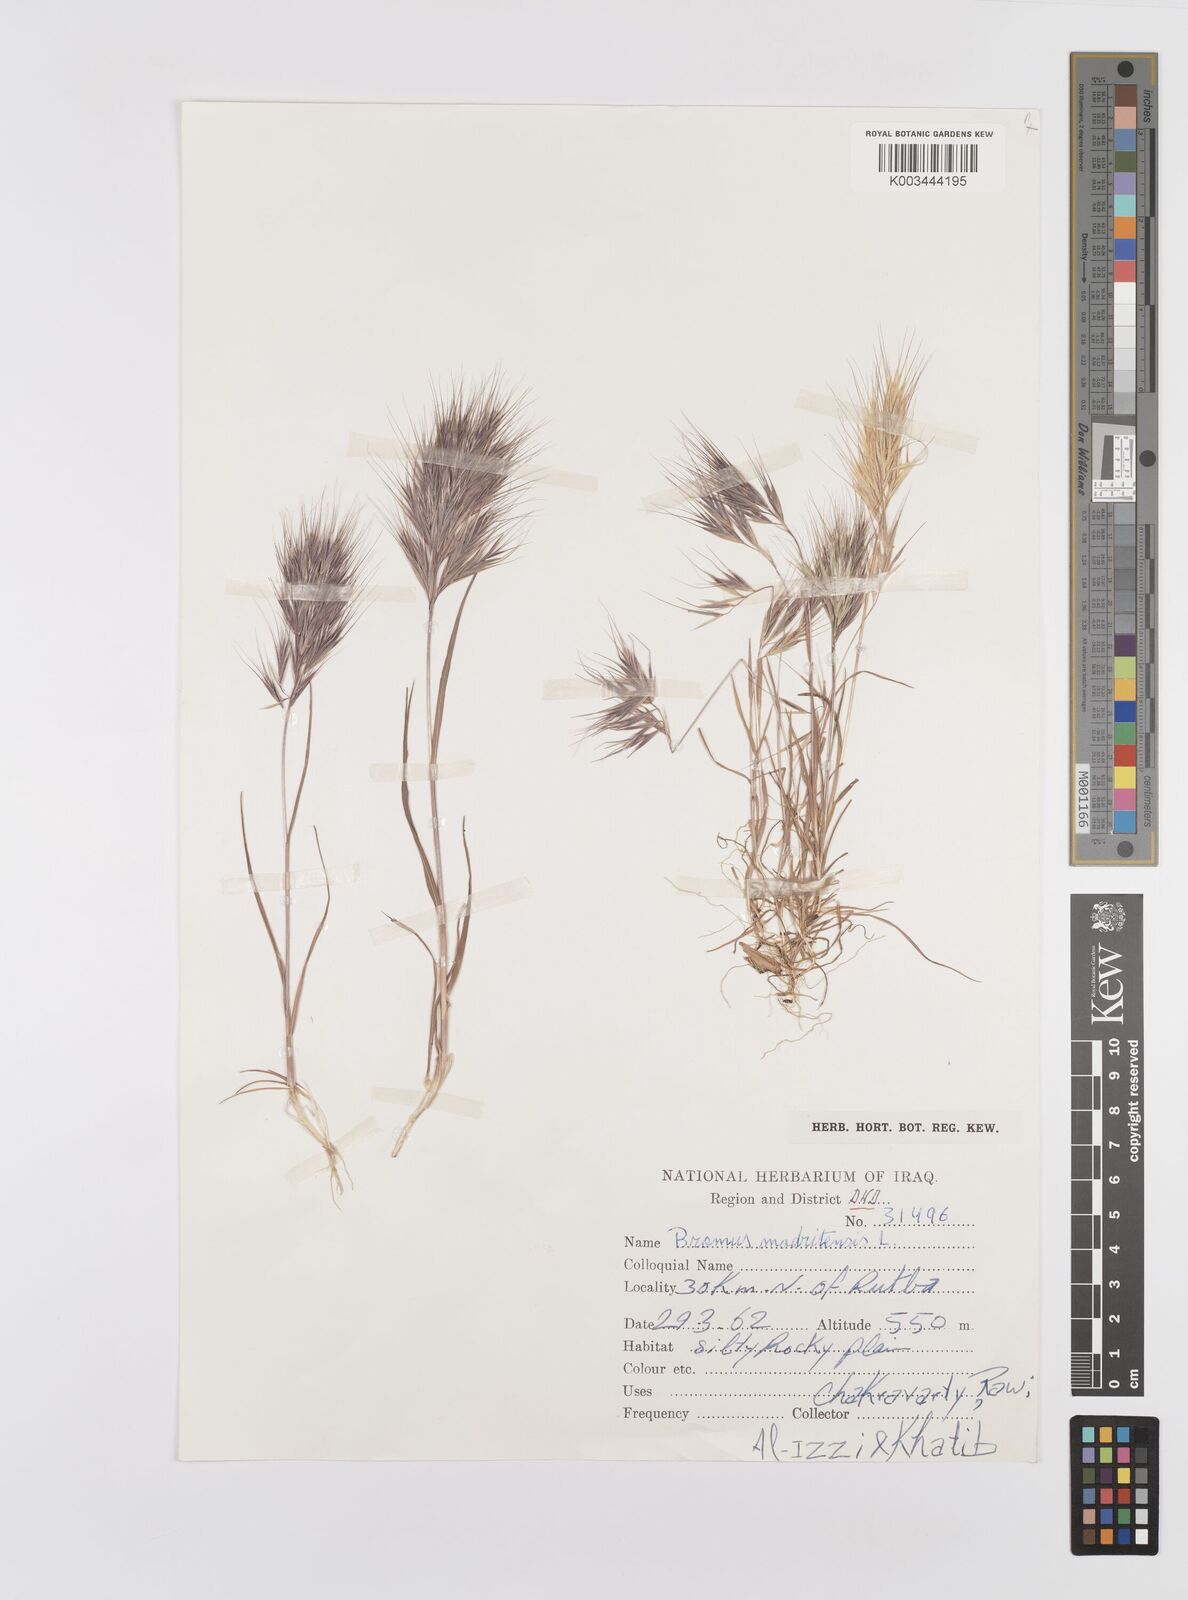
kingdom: Plantae
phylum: Tracheophyta
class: Liliopsida
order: Poales
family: Poaceae
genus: Bromus
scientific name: Bromus madritensis
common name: Compact brome
